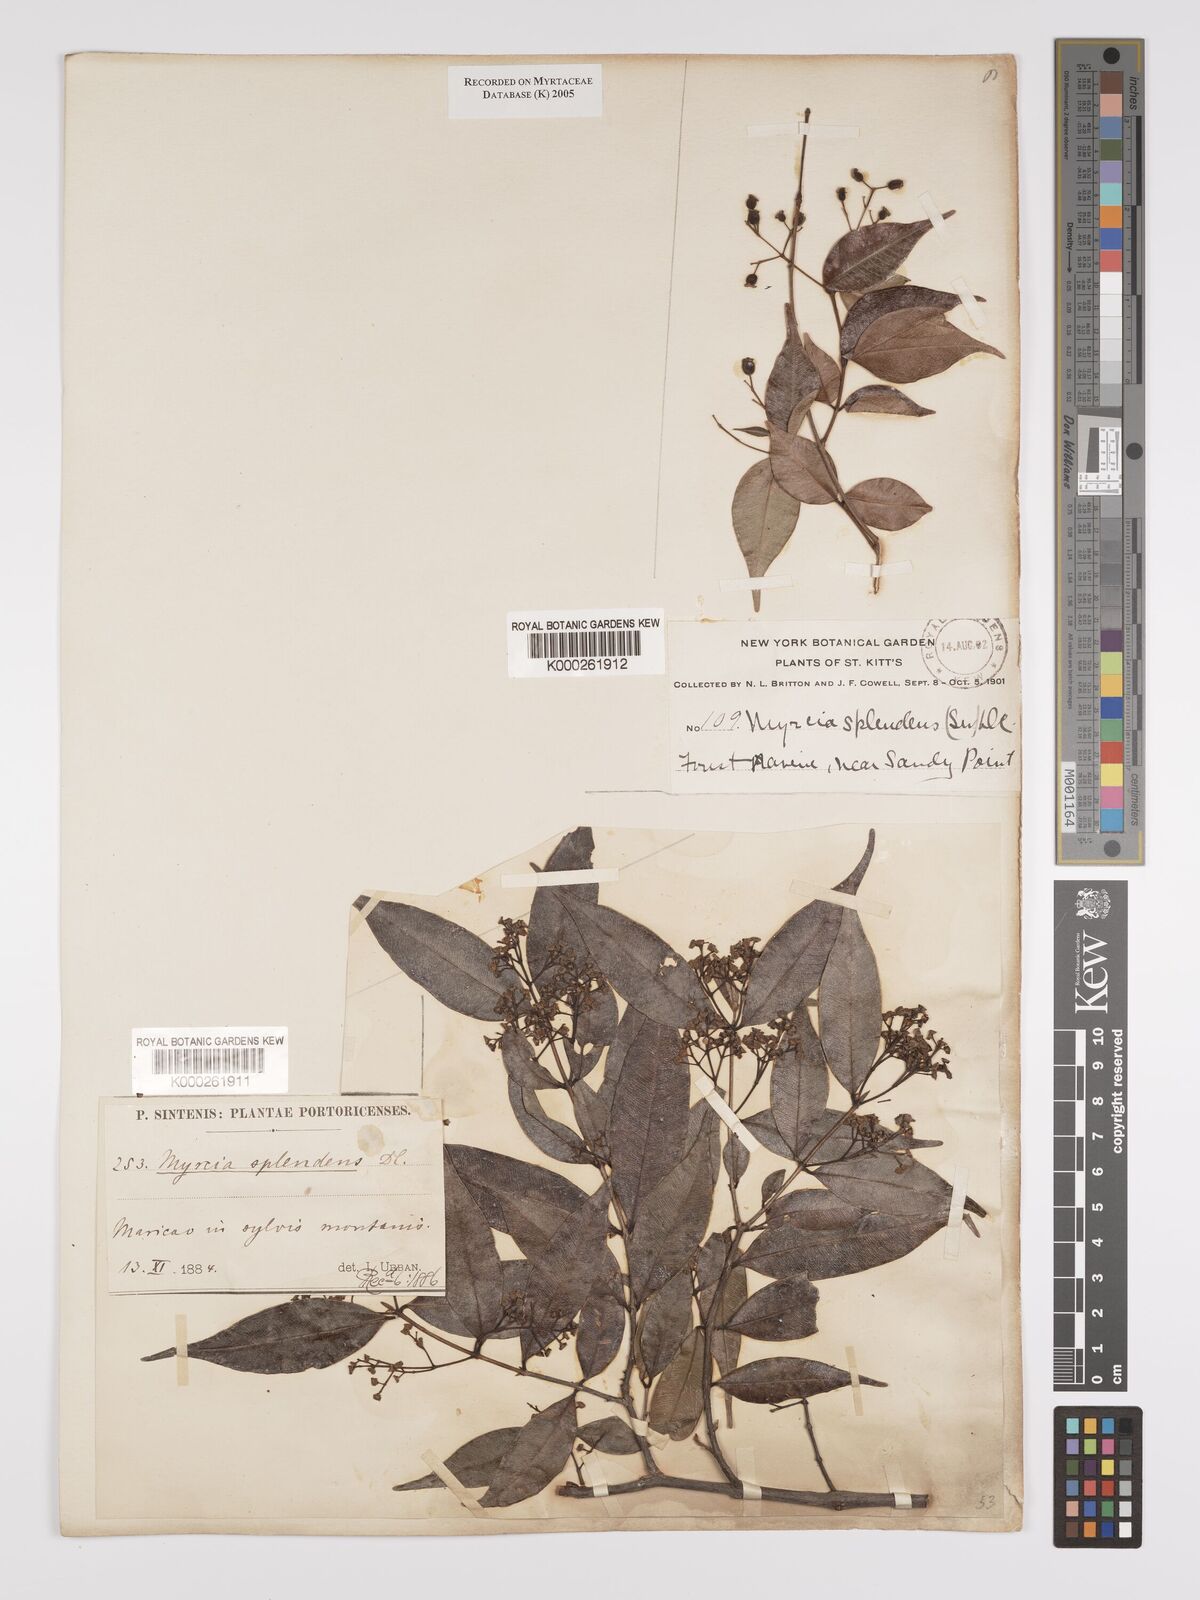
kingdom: Plantae
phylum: Tracheophyta
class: Magnoliopsida
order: Myrtales
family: Myrtaceae
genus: Myrcia
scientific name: Myrcia splendens
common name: Surinam cherry
